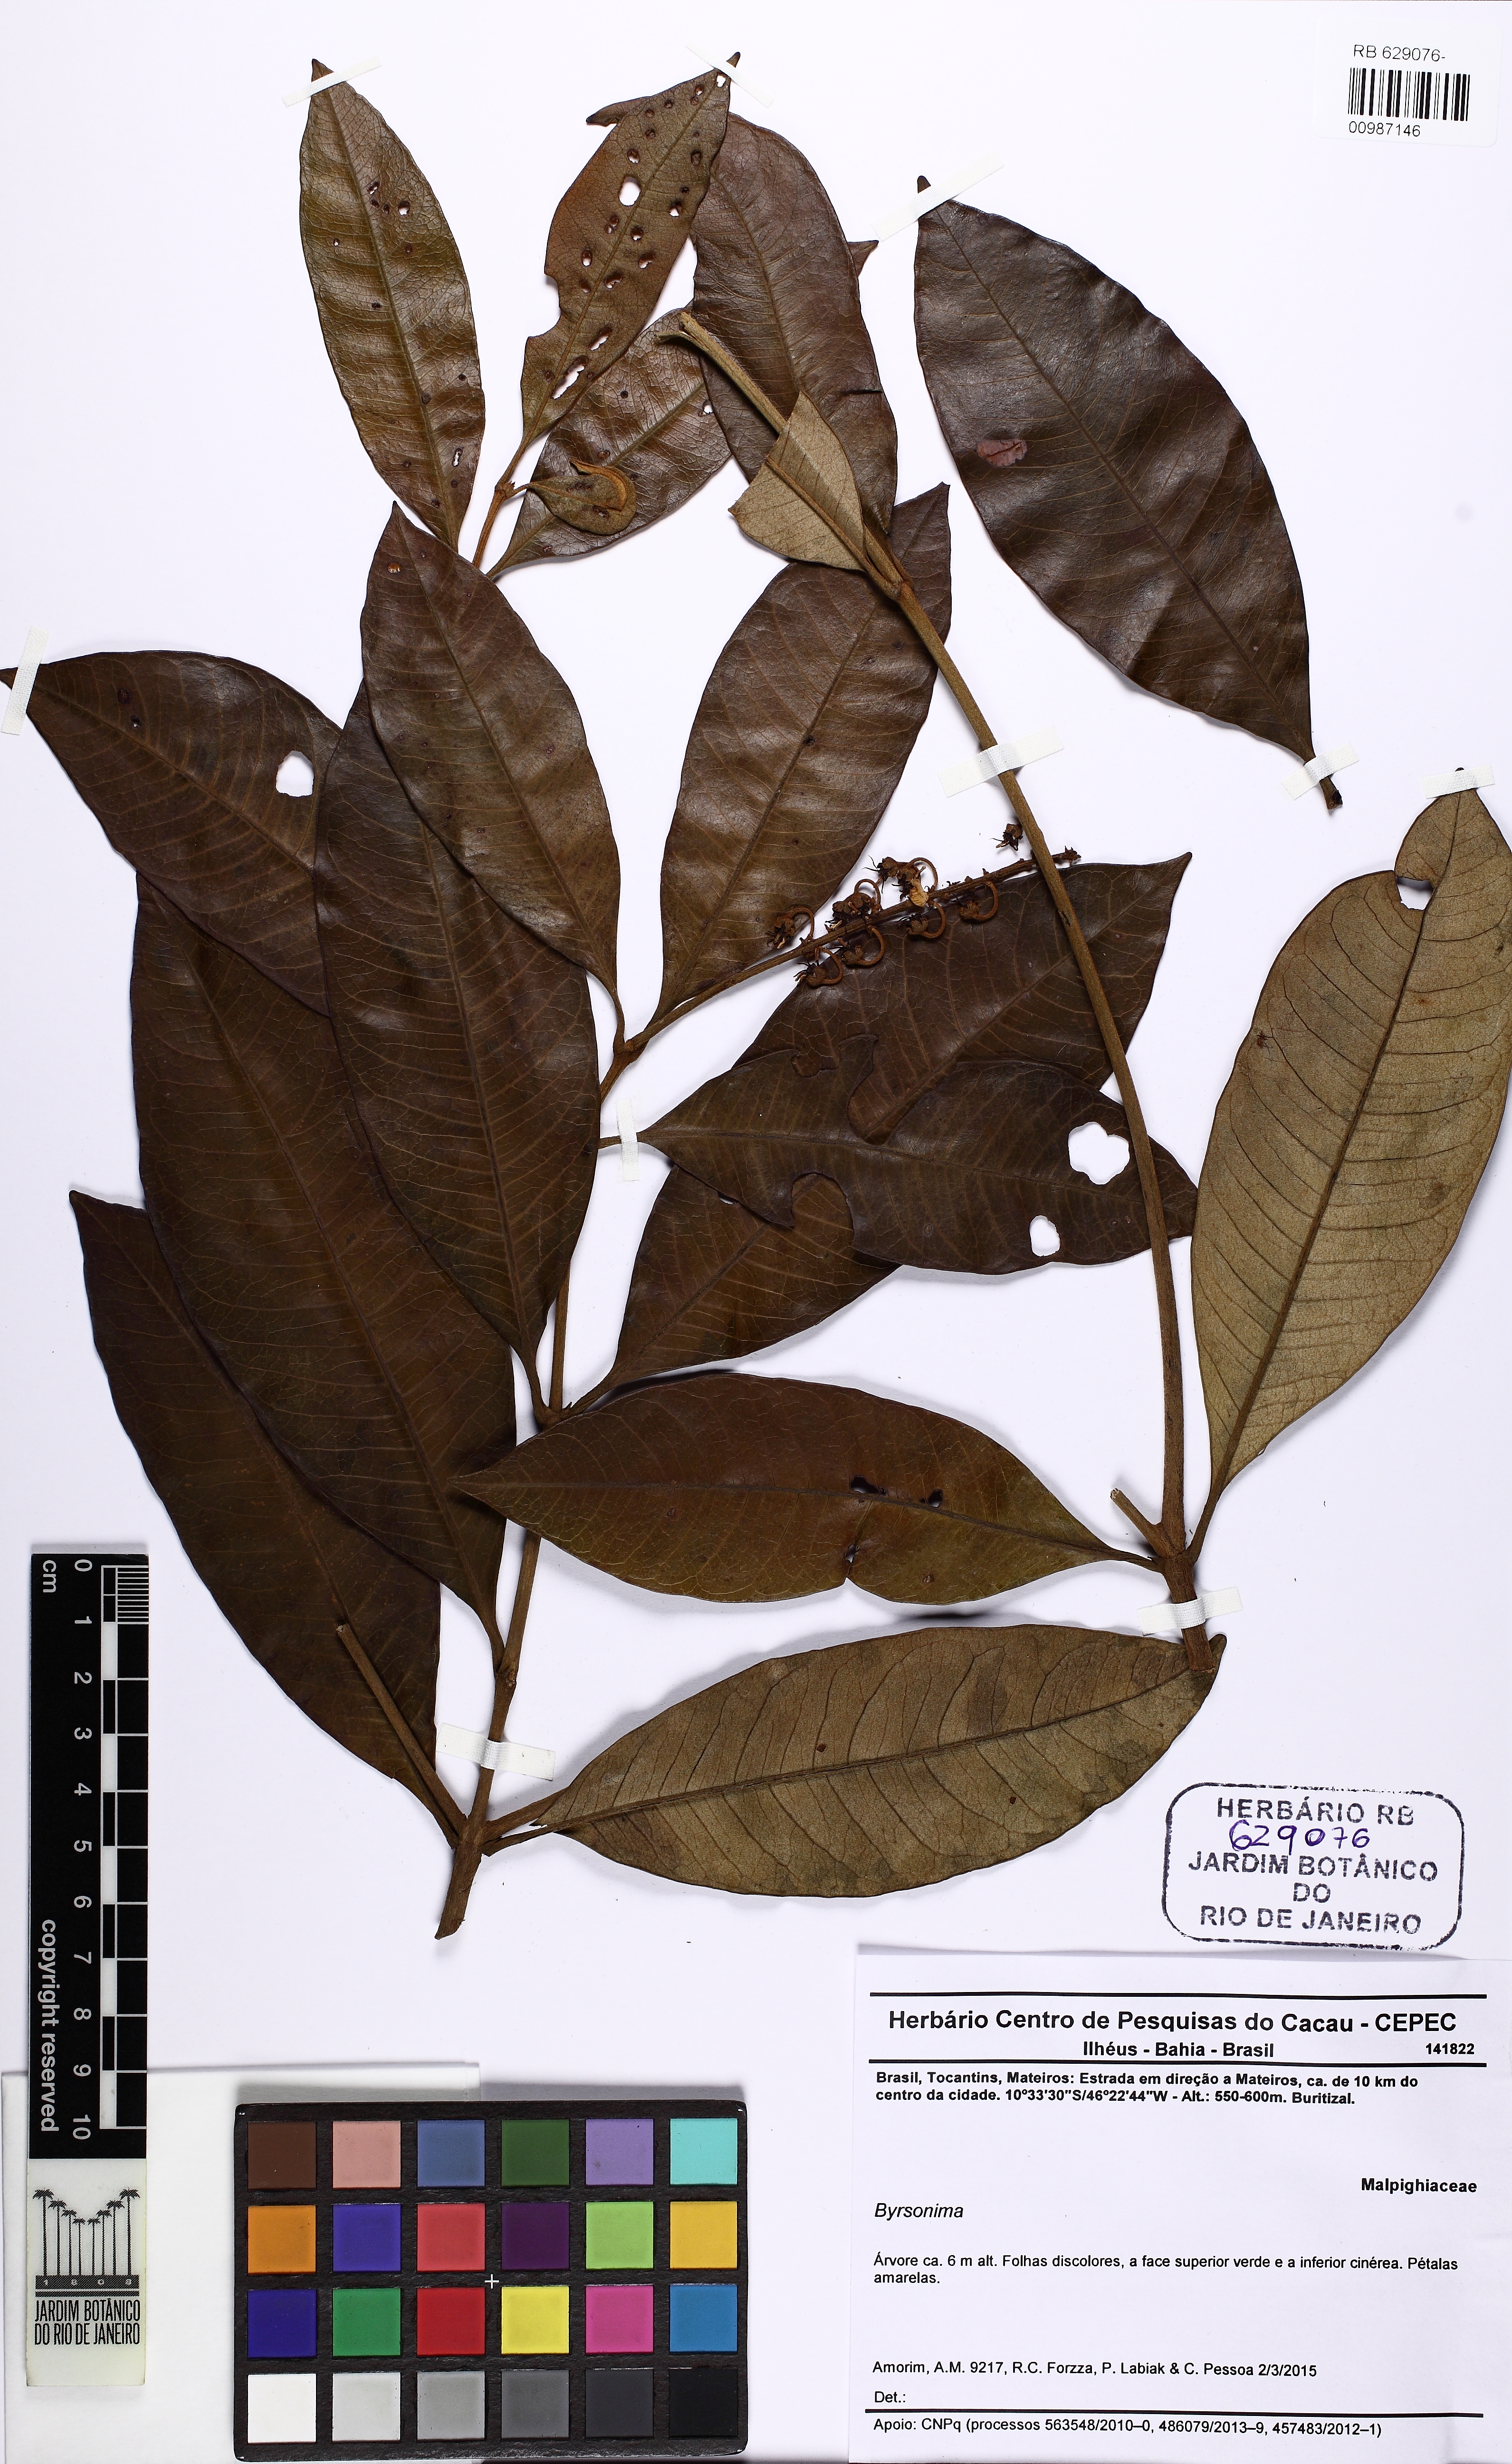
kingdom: Plantae
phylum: Tracheophyta
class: Magnoliopsida
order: Malpighiales
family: Malpighiaceae
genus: Byrsonima
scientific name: Byrsonima
